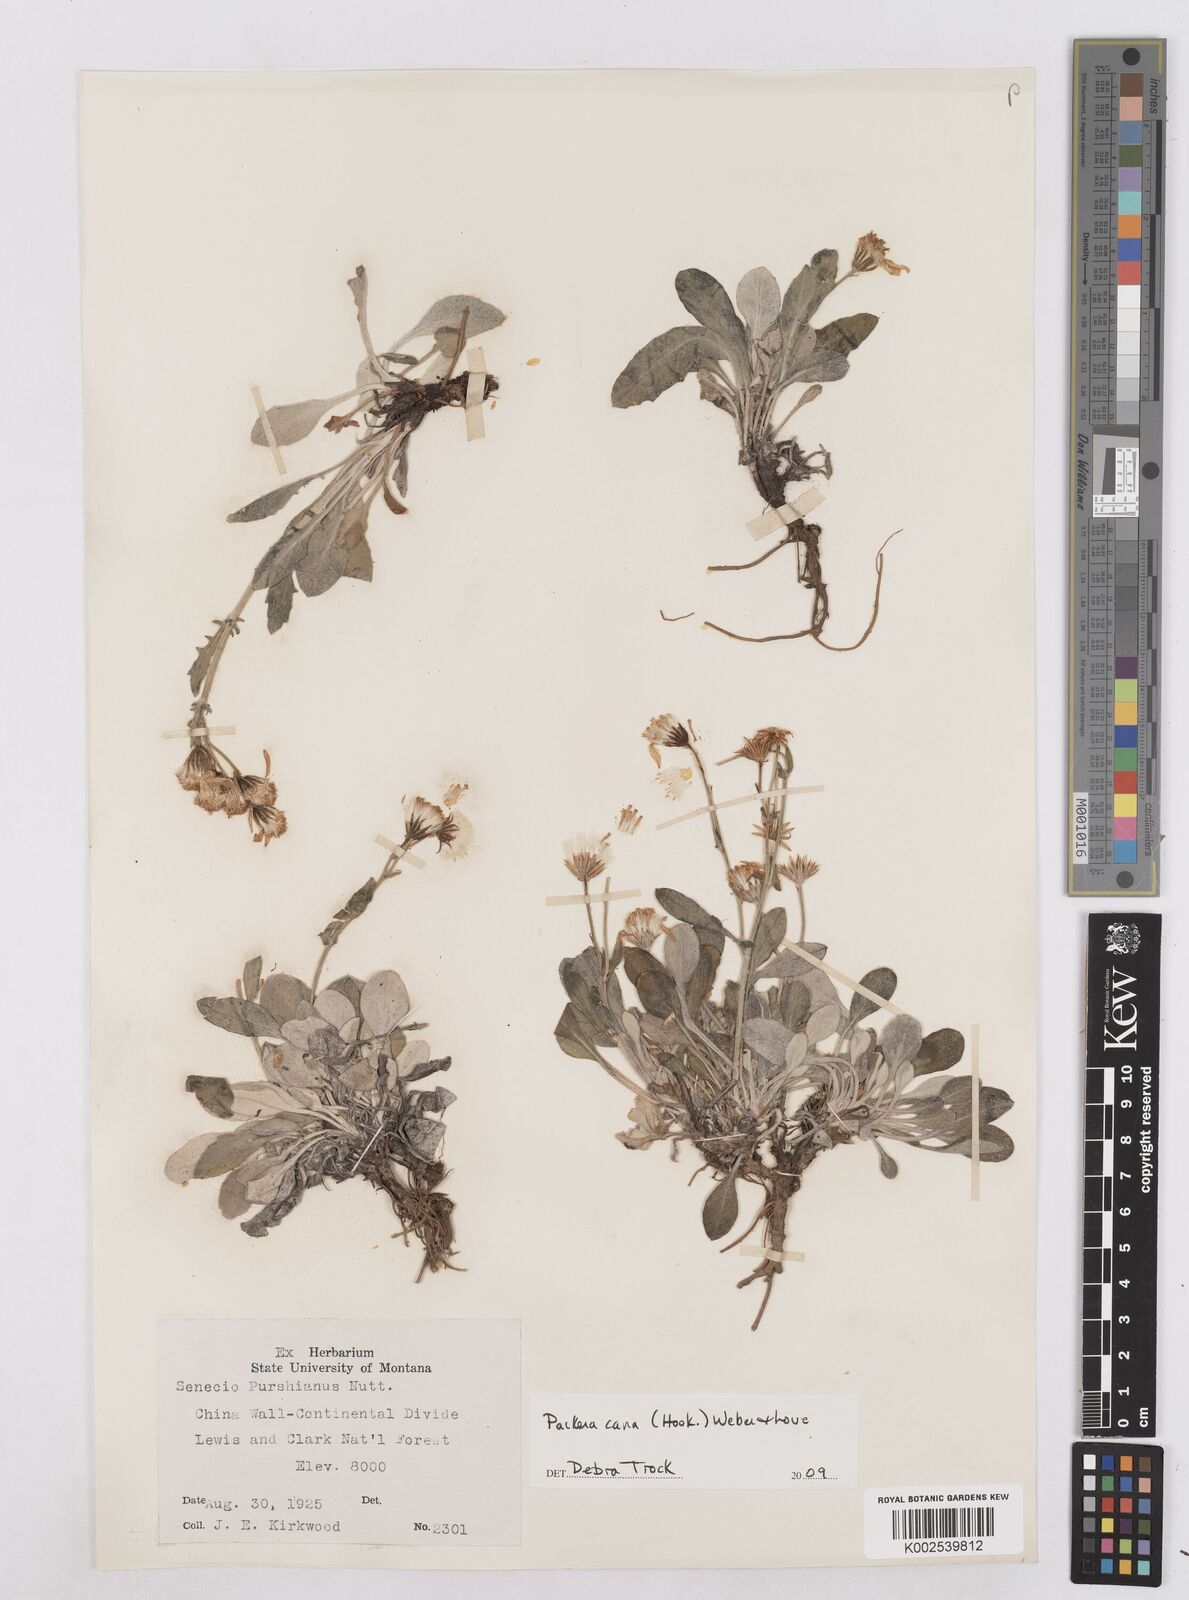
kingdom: Plantae
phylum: Tracheophyta
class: Magnoliopsida
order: Asterales
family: Asteraceae
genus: Packera
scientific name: Packera cana
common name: Woolly groundsel
